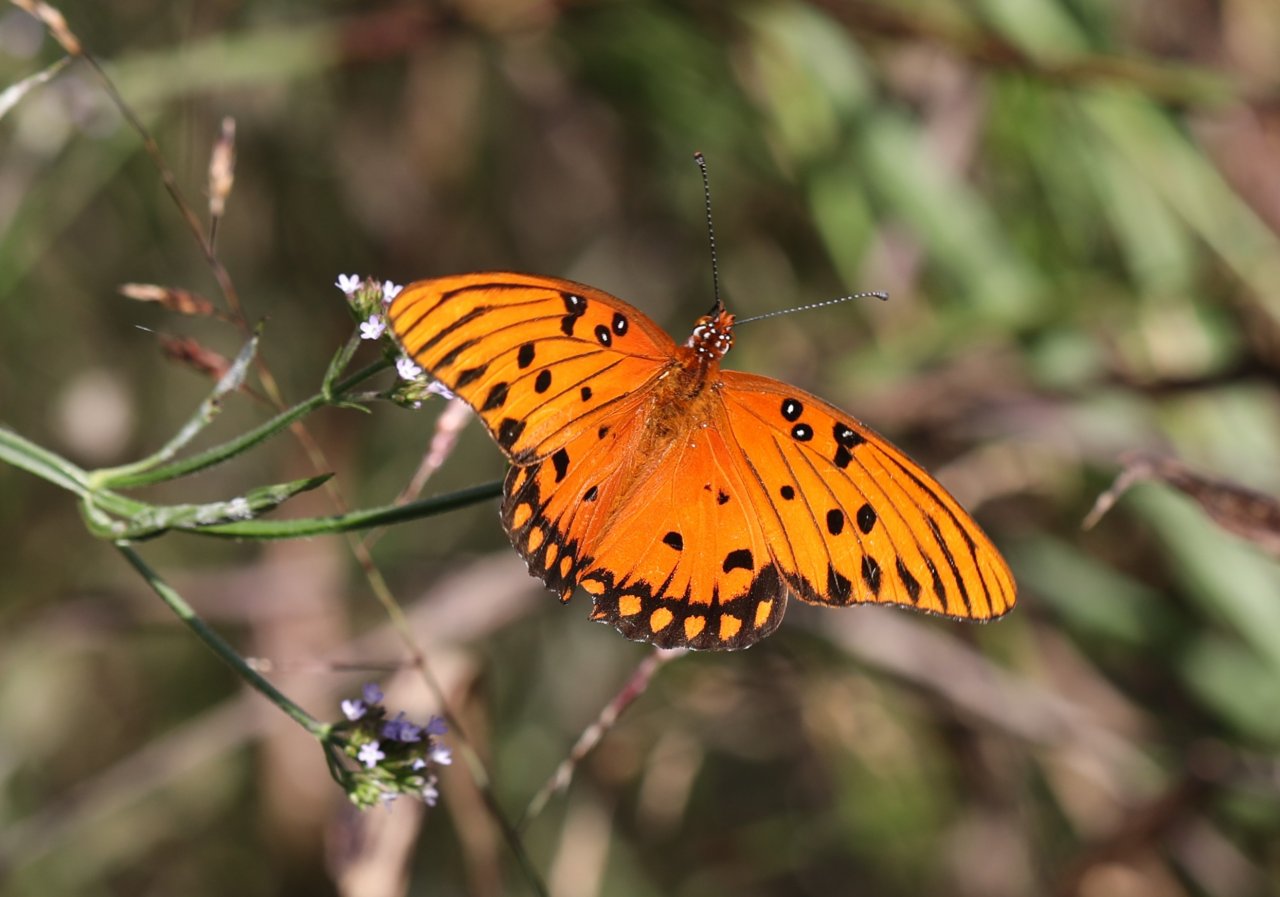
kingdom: Animalia
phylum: Arthropoda
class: Insecta
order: Lepidoptera
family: Nymphalidae
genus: Dione
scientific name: Dione vanillae
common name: Gulf Fritillary
